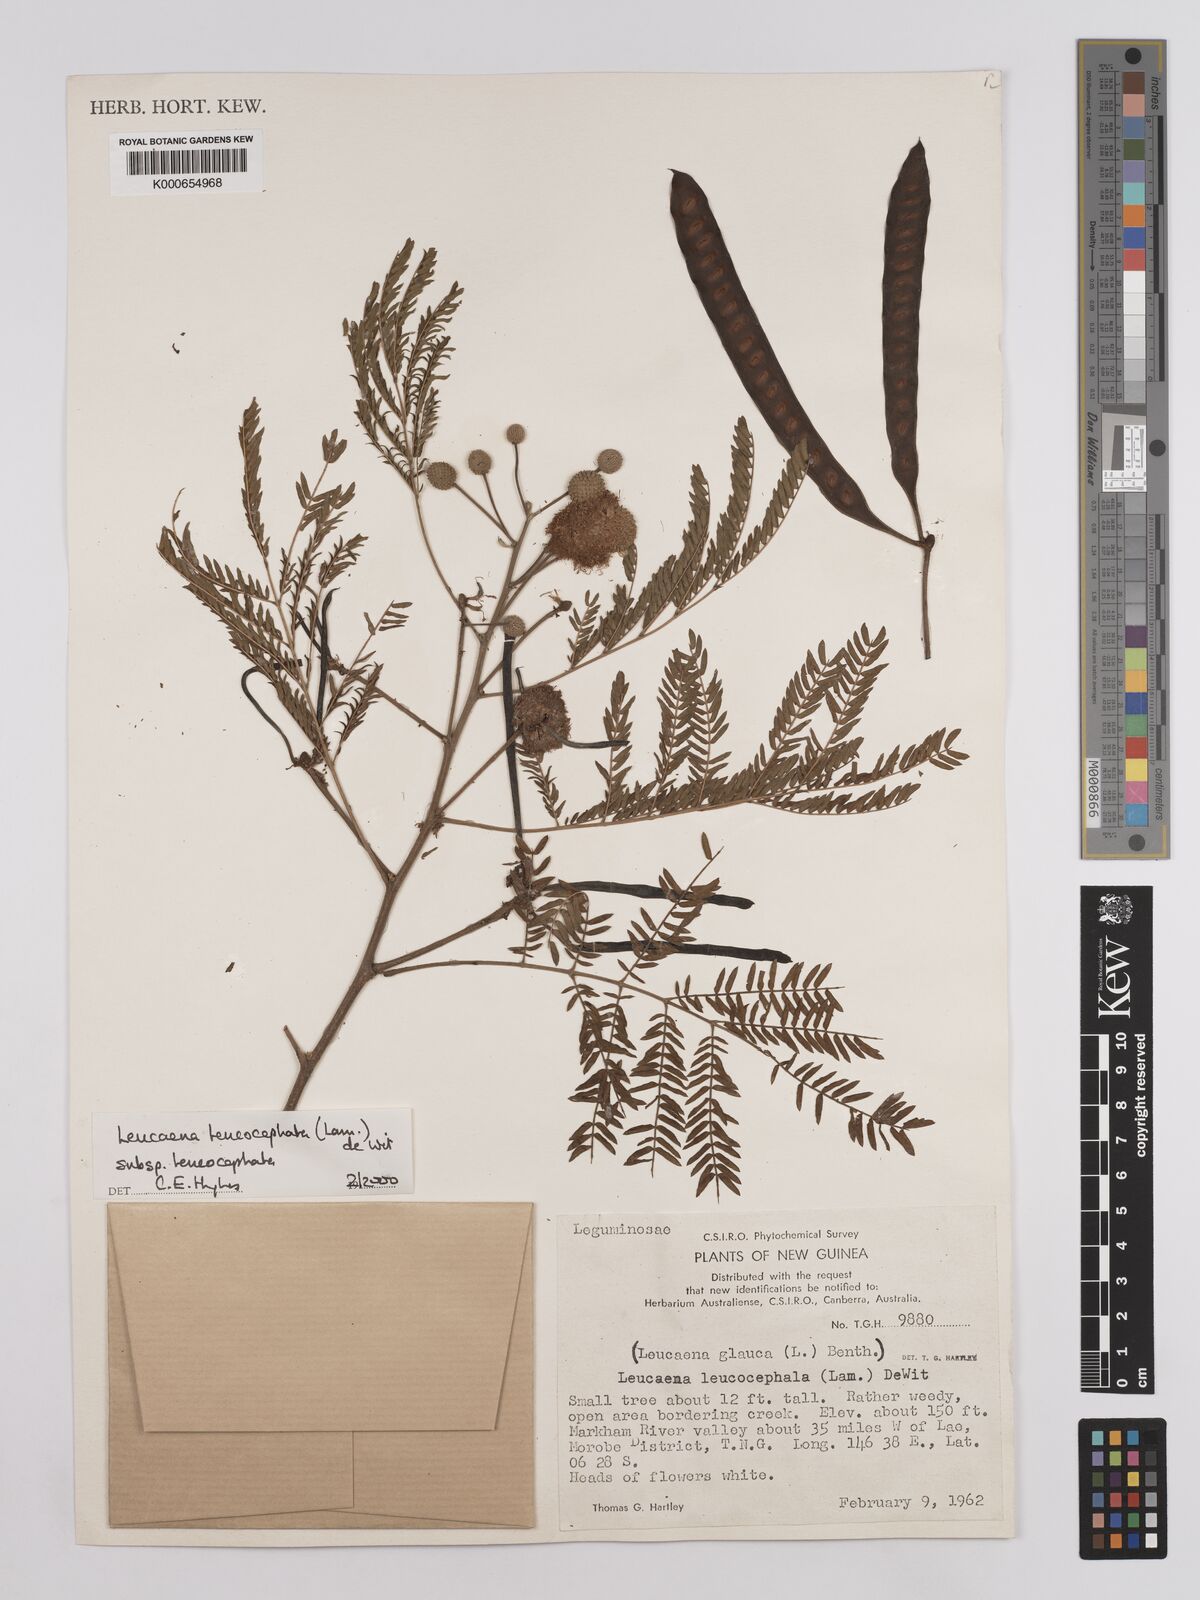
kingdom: Plantae
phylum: Tracheophyta
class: Magnoliopsida
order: Fabales
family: Fabaceae
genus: Leucaena
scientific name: Leucaena leucocephala
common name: White leadtree
